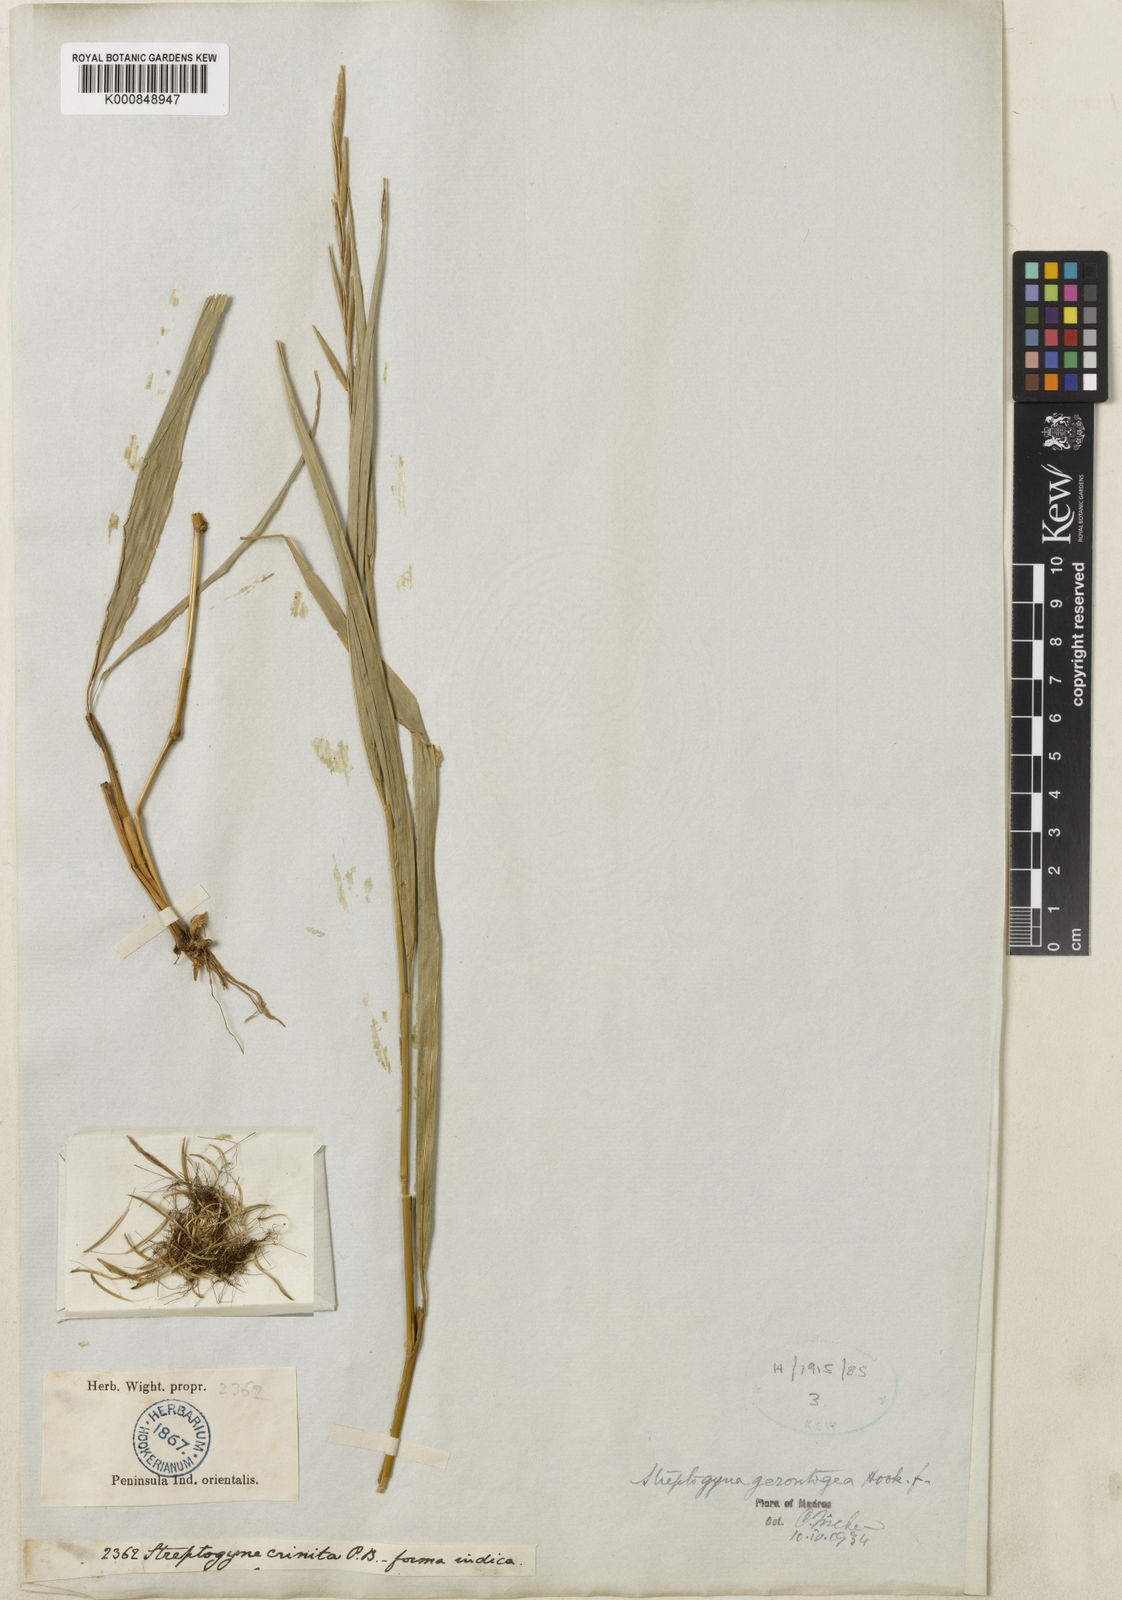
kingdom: Plantae
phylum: Tracheophyta
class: Liliopsida
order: Poales
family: Poaceae
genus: Streptogyna
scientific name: Streptogyna crinita
